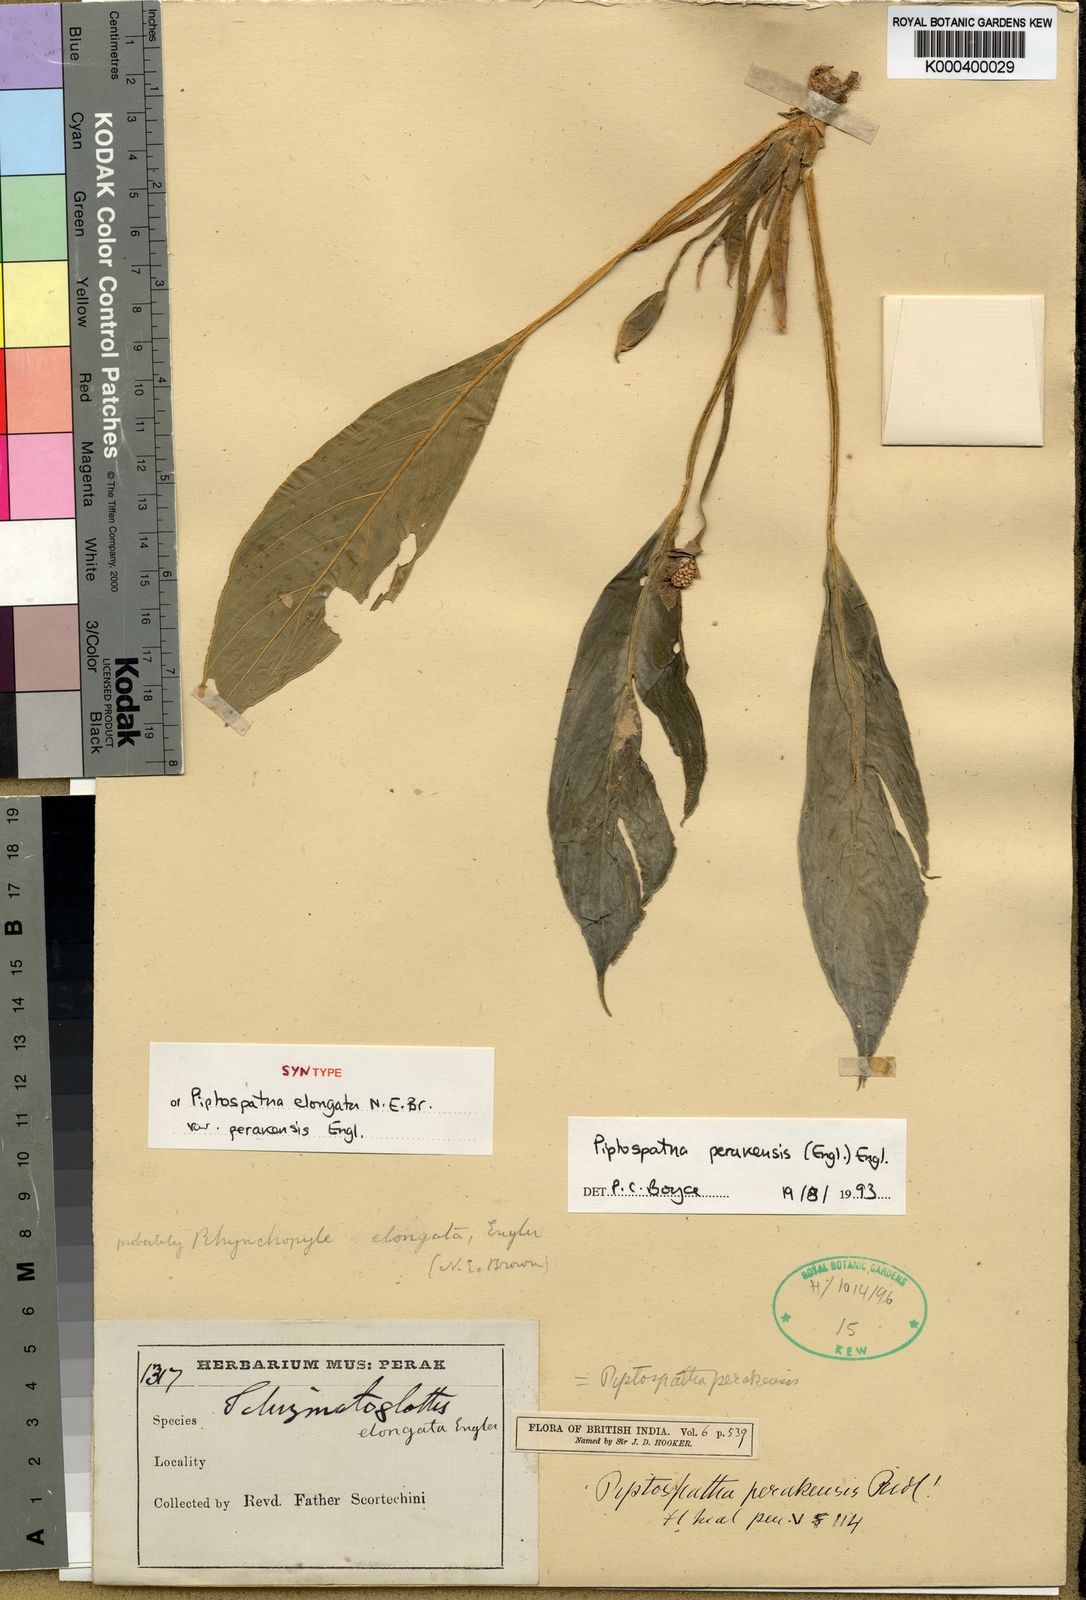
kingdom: Plantae
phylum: Tracheophyta
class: Liliopsida
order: Alismatales
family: Araceae
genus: Kiewia
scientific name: Kiewia perakensis
